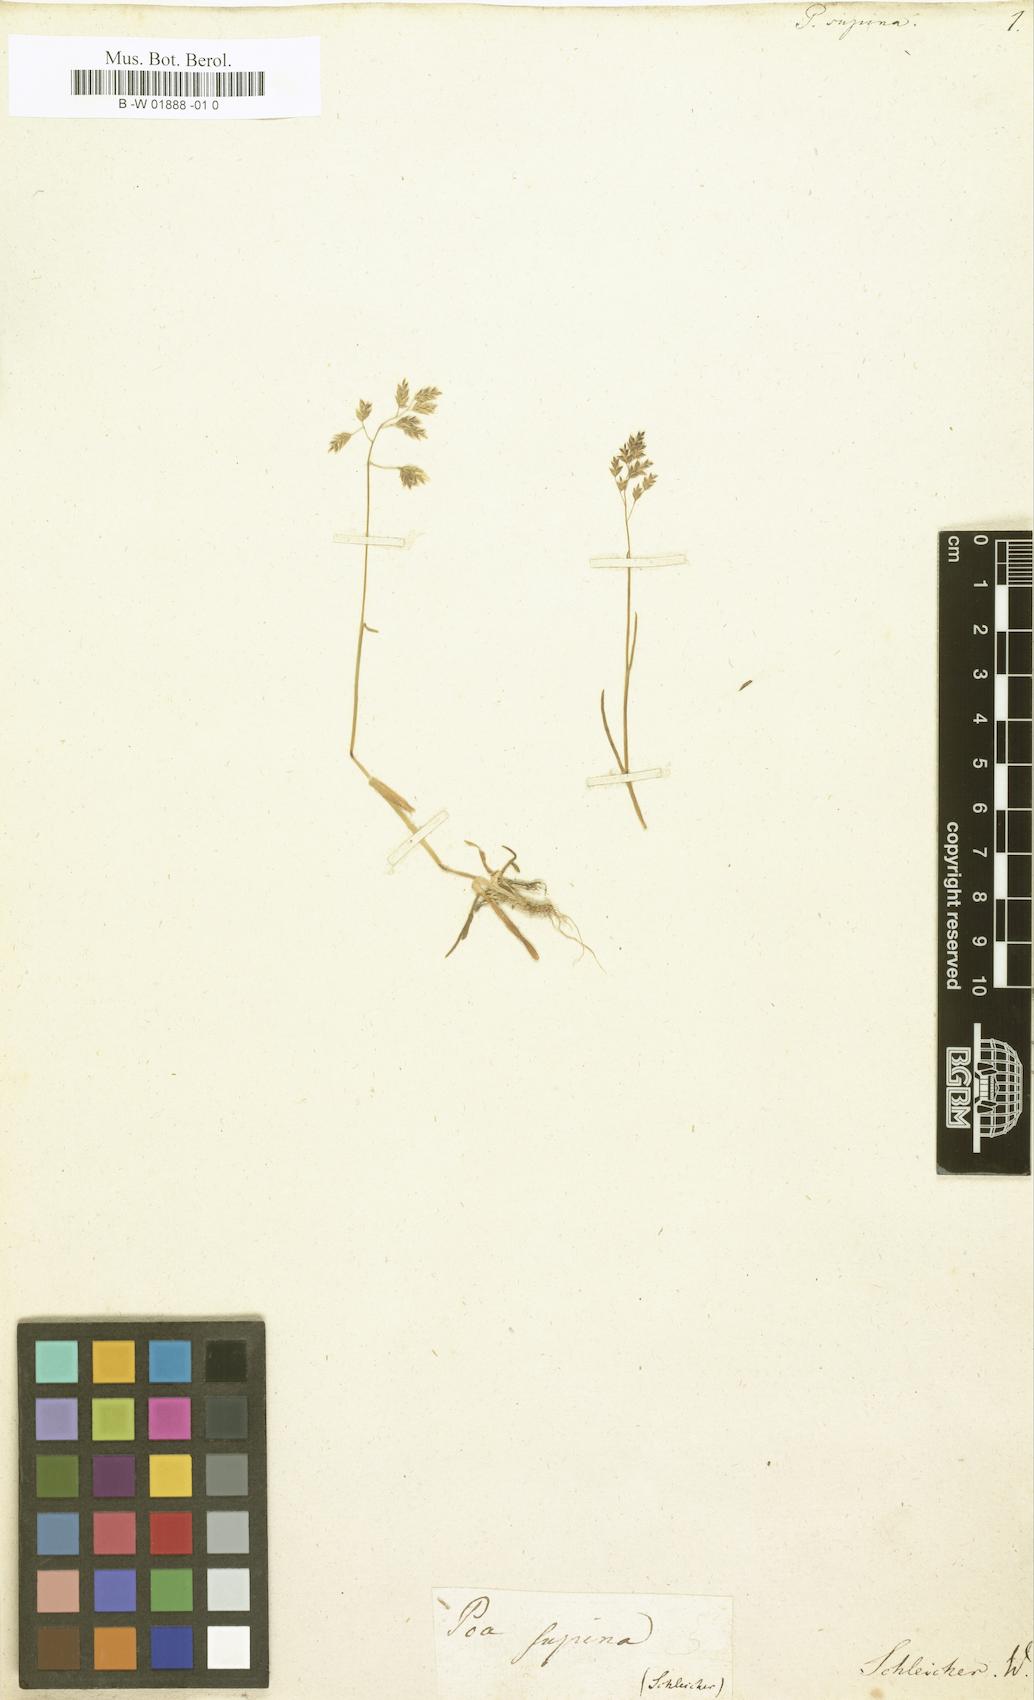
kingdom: Plantae
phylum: Tracheophyta
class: Liliopsida
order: Poales
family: Poaceae
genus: Poa
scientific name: Poa supina
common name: Supina bluegrass
